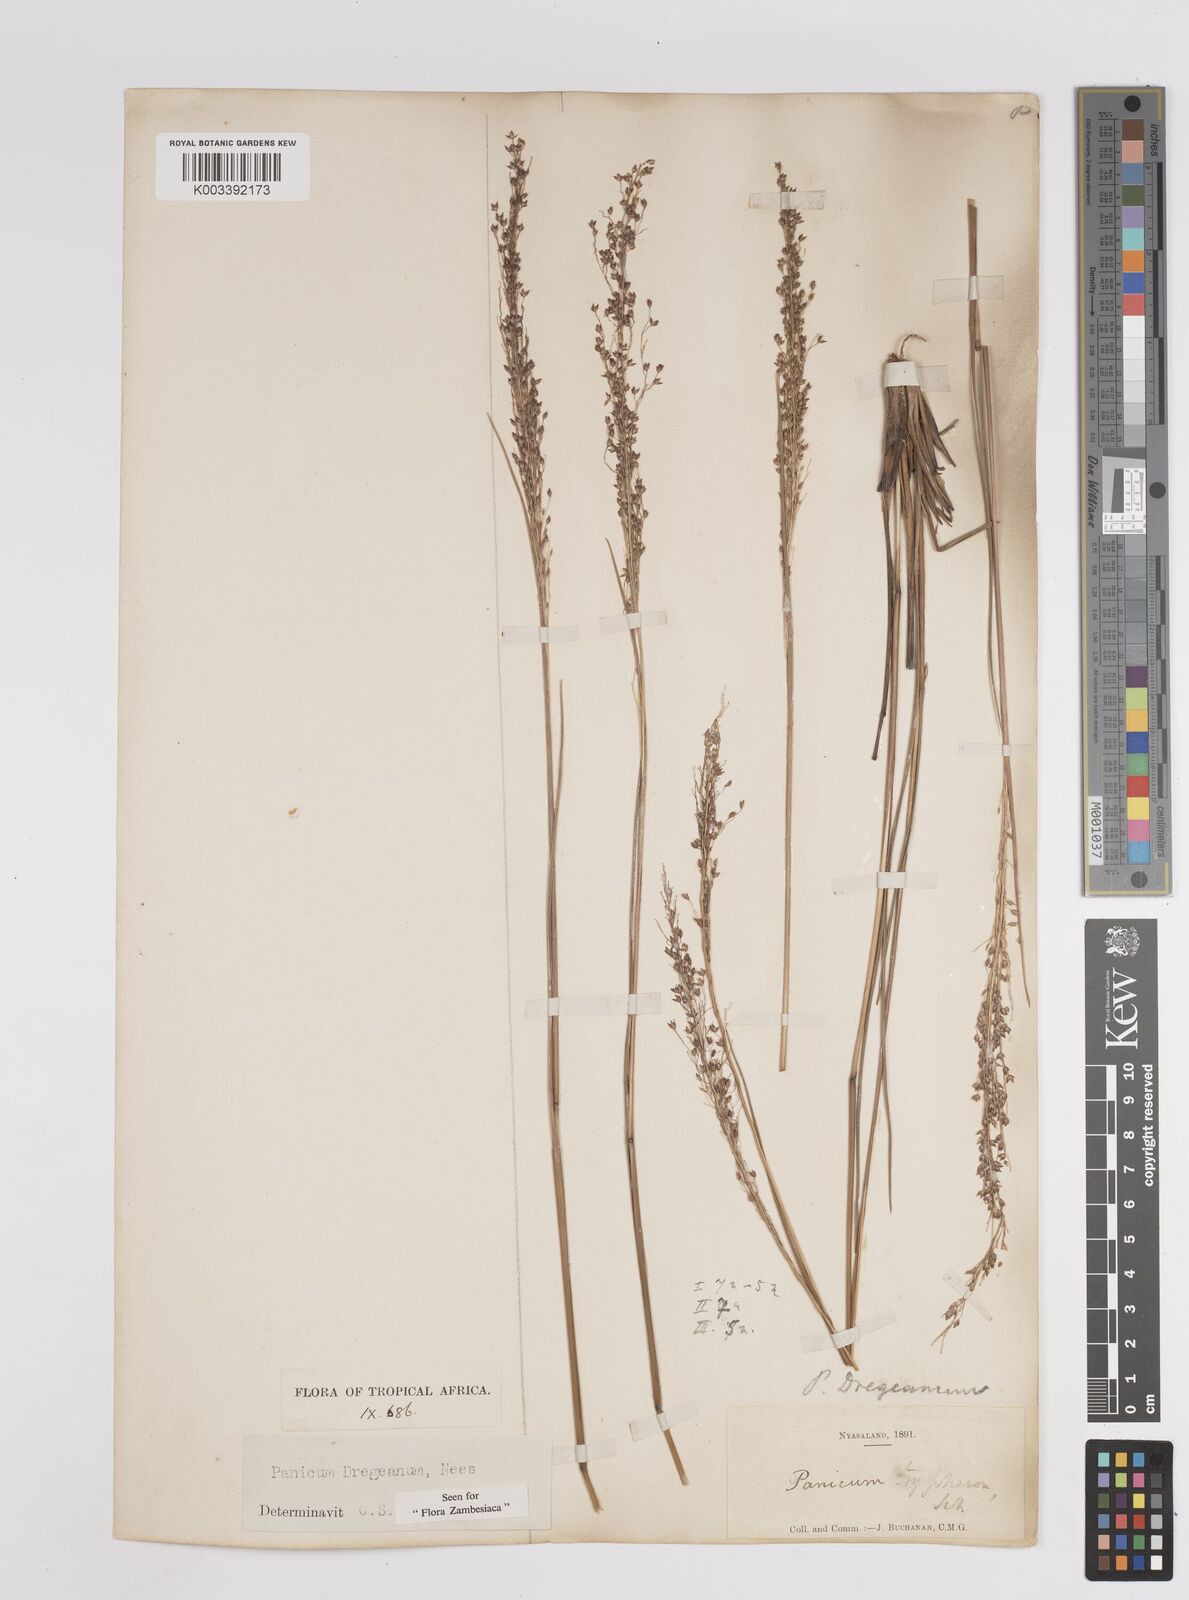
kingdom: Plantae
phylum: Tracheophyta
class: Liliopsida
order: Poales
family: Poaceae
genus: Panicum
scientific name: Panicum dregeanum
